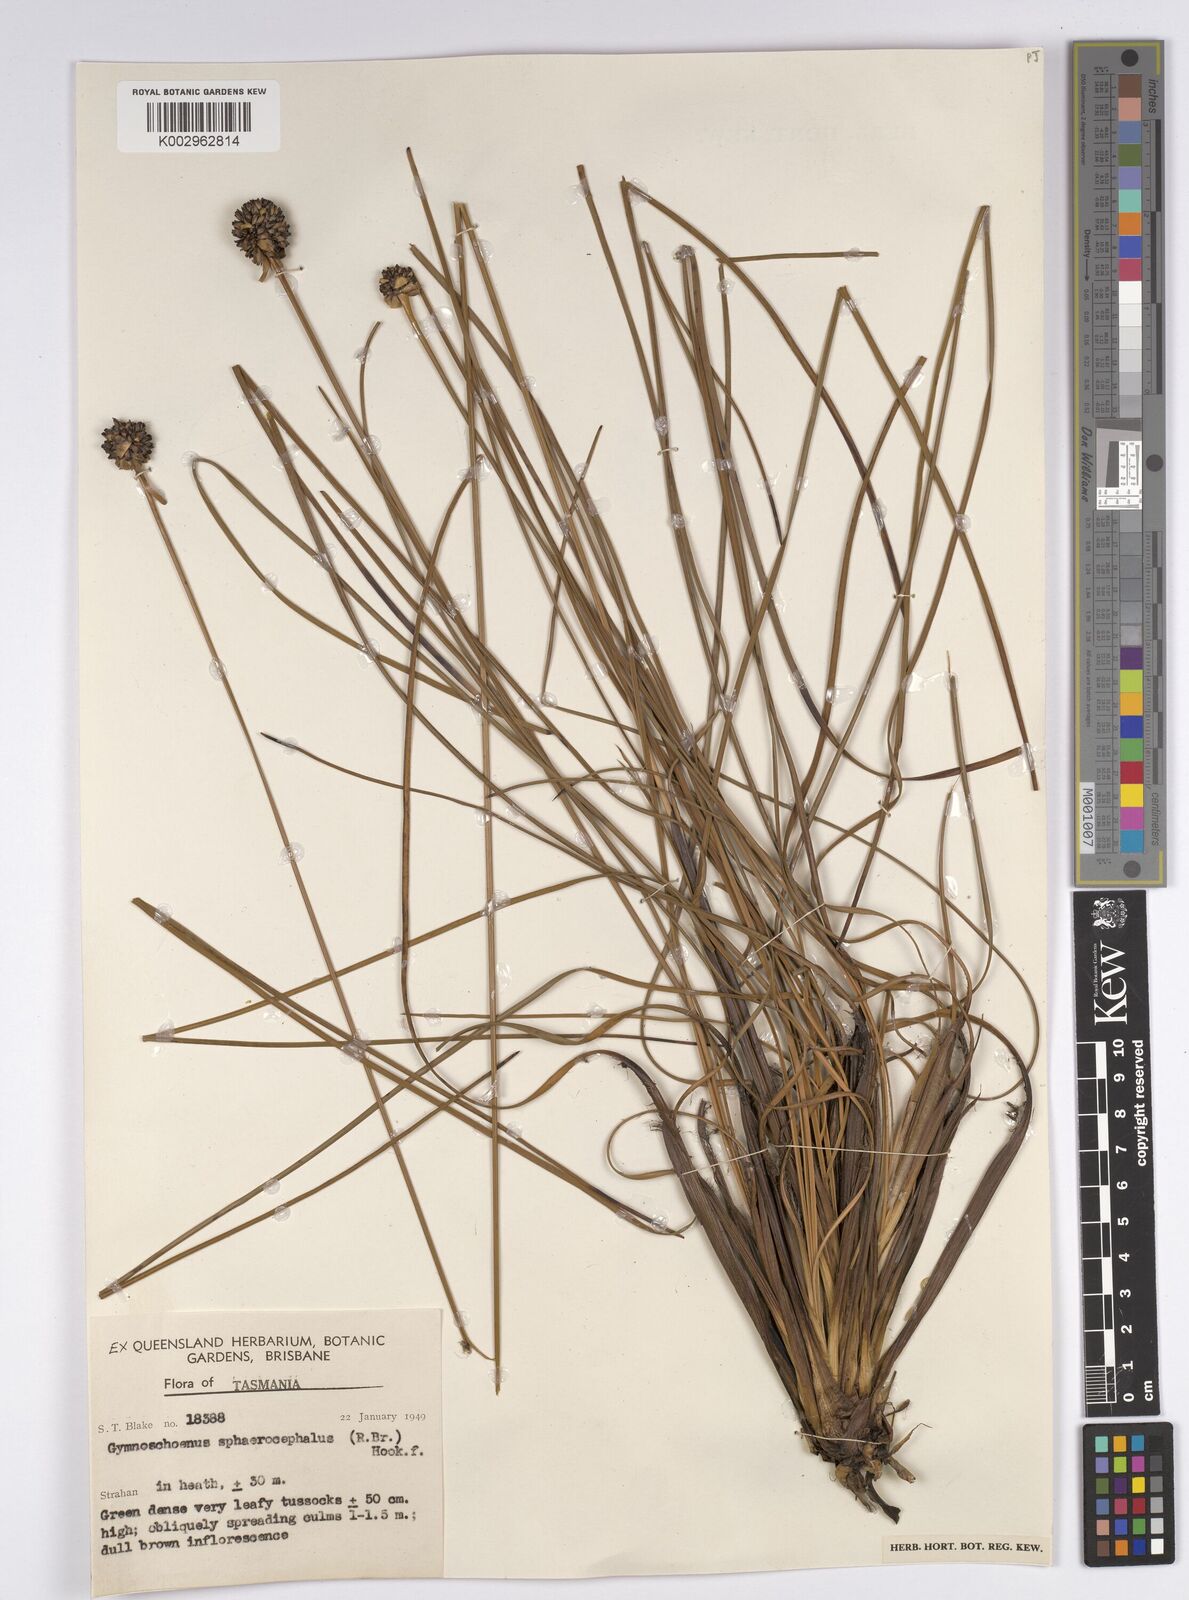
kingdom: Plantae
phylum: Tracheophyta
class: Liliopsida
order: Poales
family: Cyperaceae
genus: Gymnoschoenus
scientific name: Gymnoschoenus sphaerocephalus
